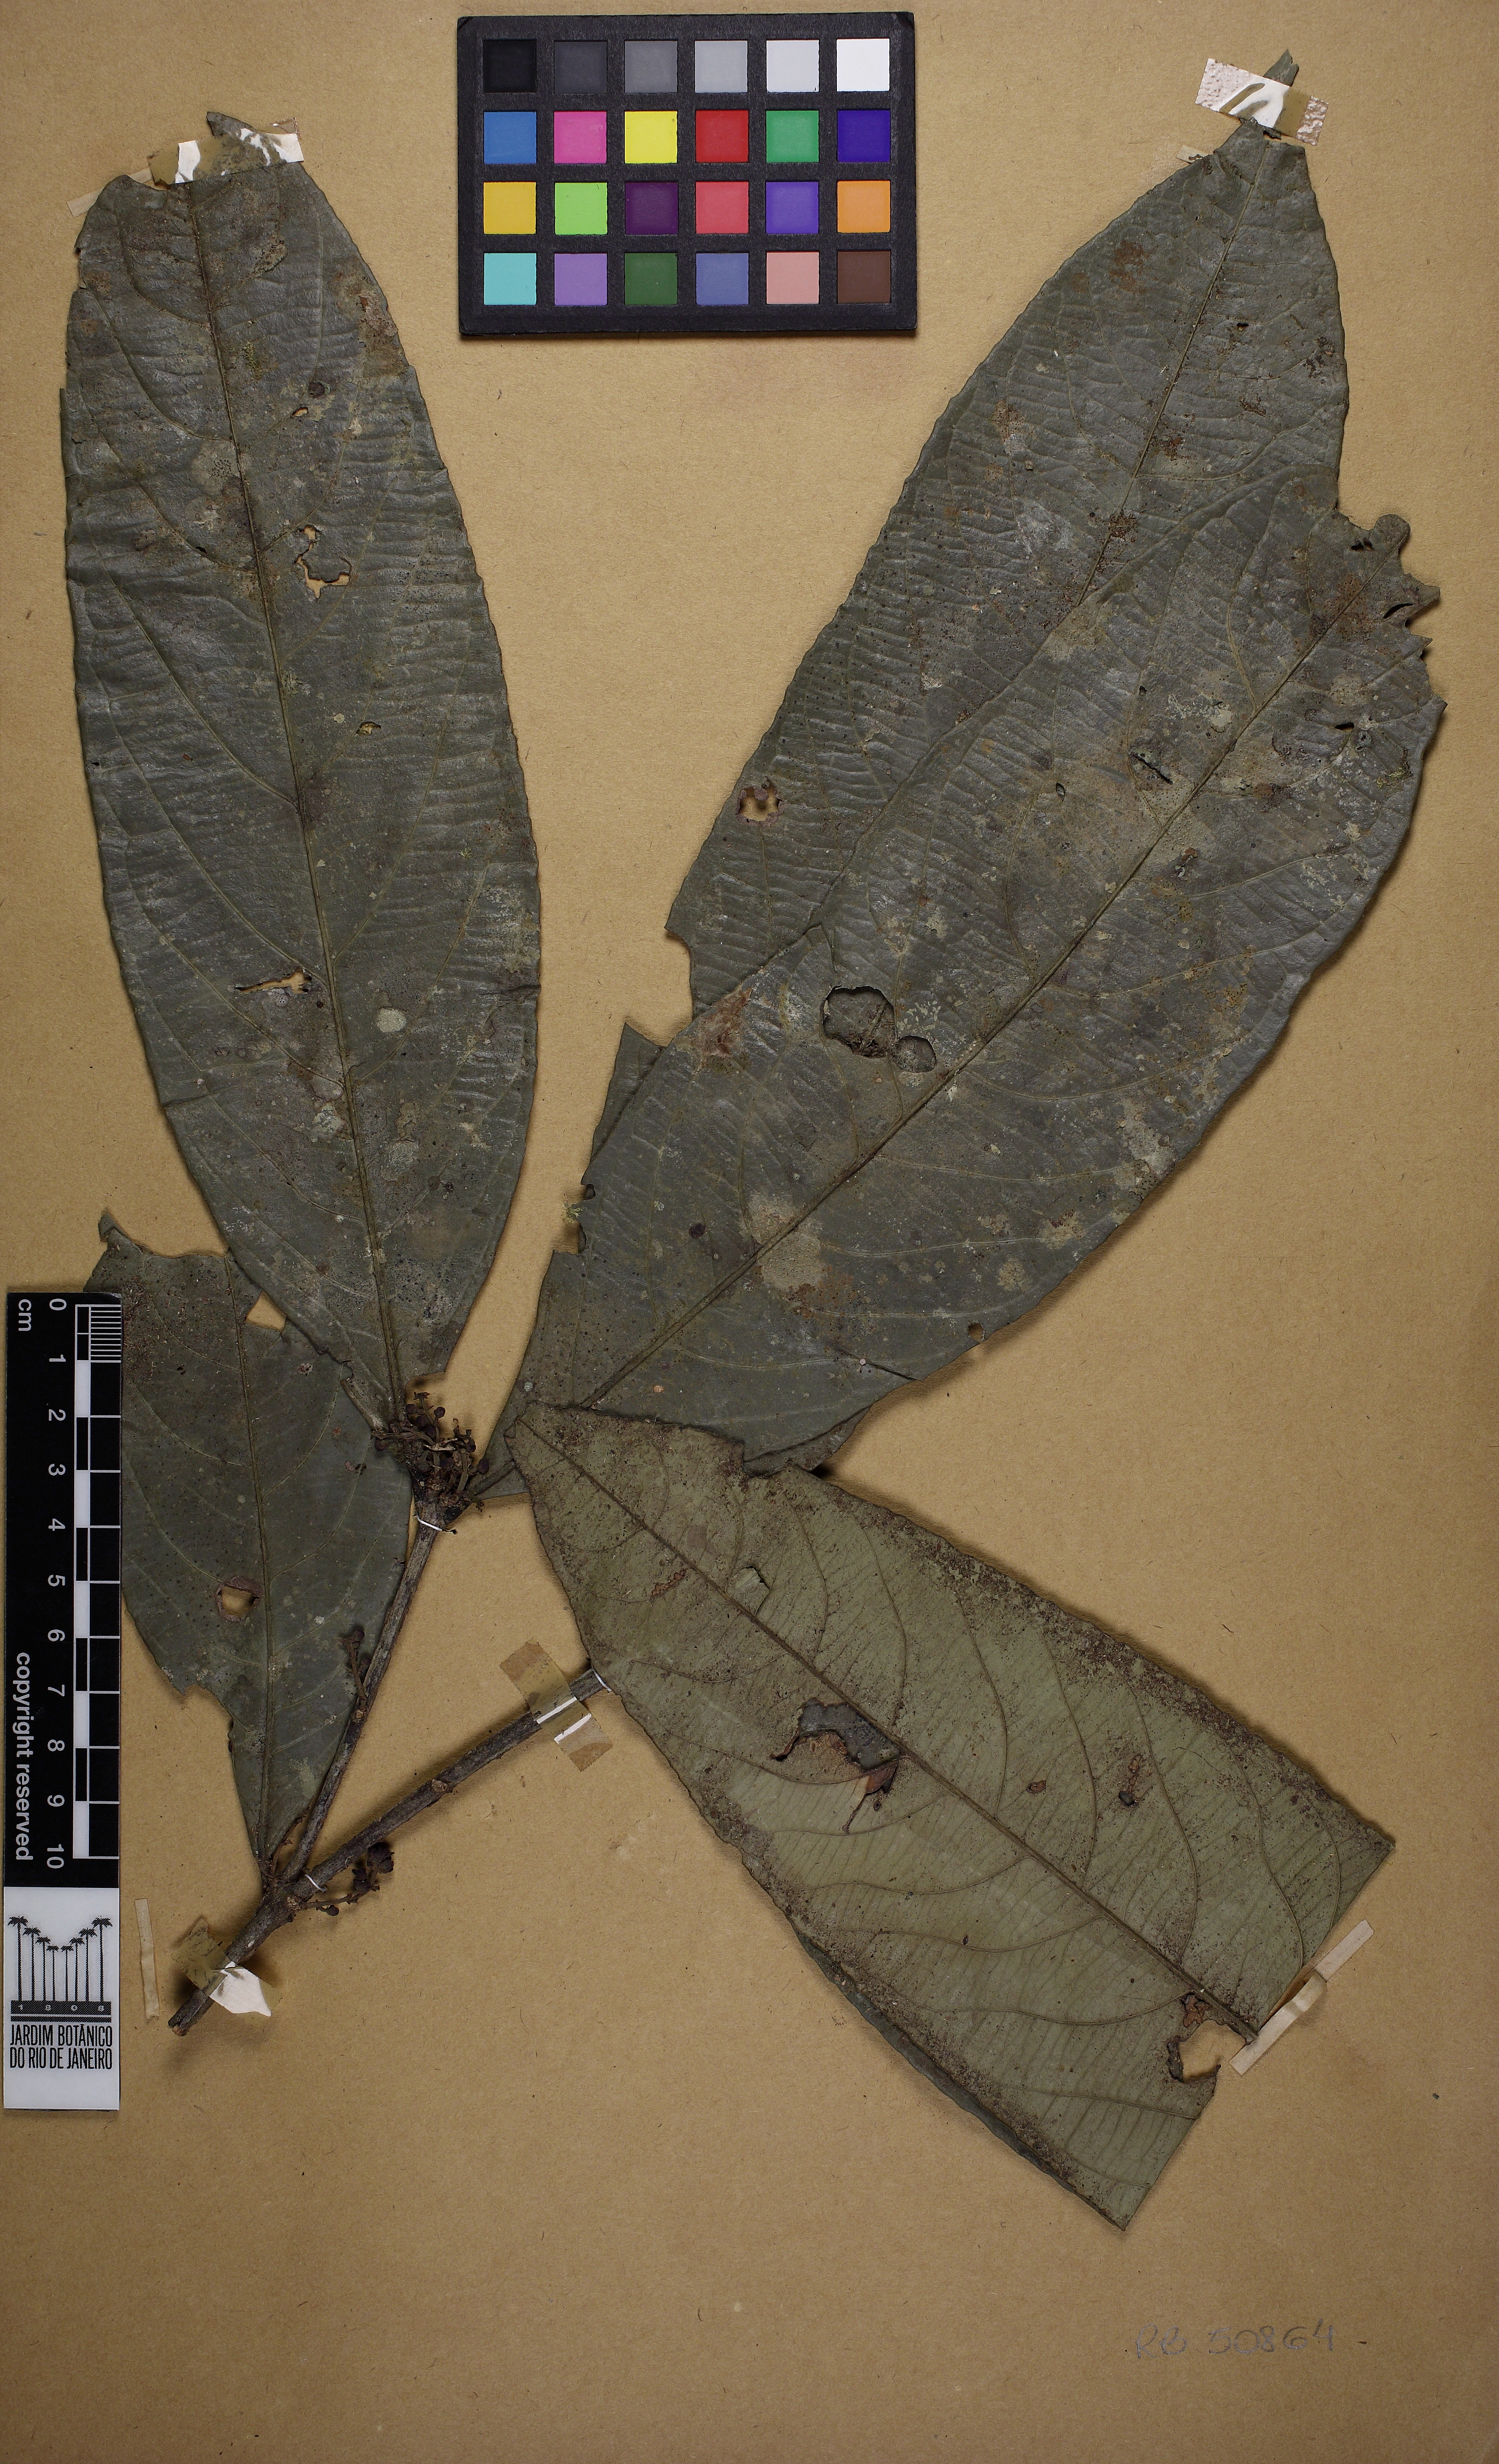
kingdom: Plantae
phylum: Tracheophyta
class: Magnoliopsida
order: Celastrales
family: Celastraceae
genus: Cheiloclinium
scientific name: Cheiloclinium cognatum
